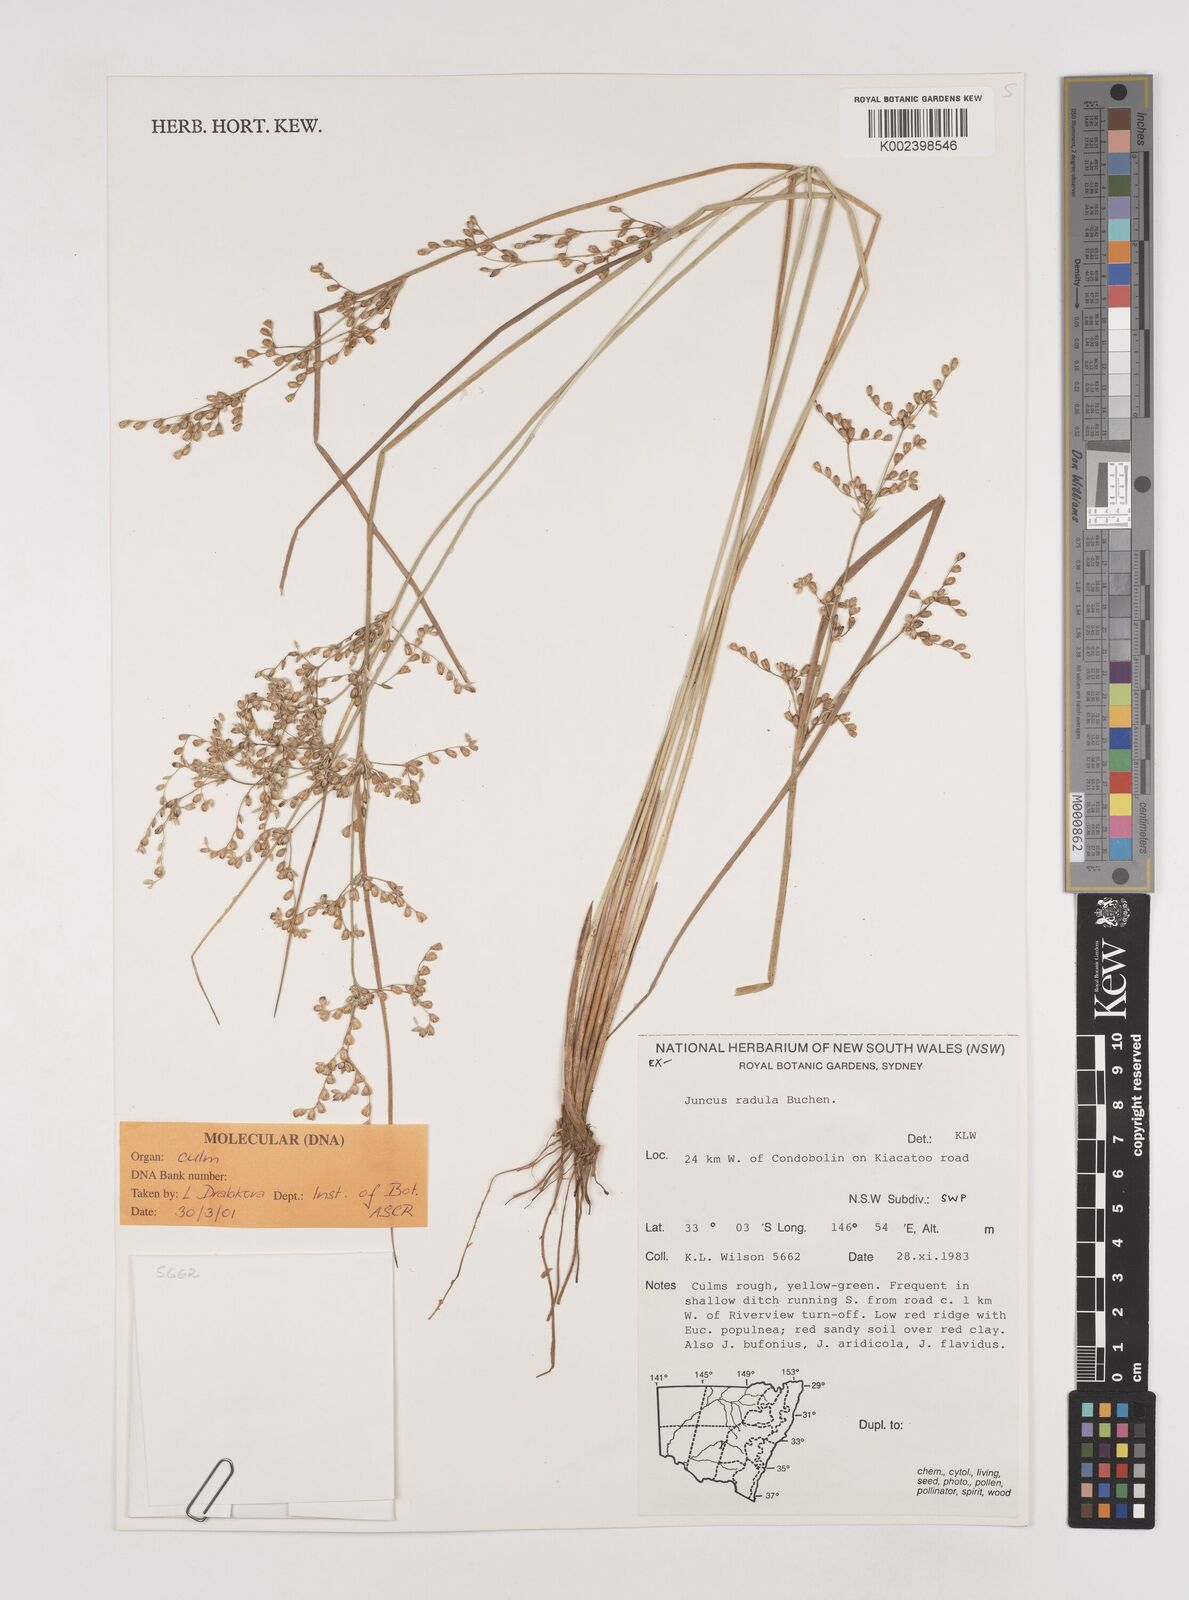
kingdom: Plantae
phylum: Tracheophyta
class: Liliopsida
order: Poales
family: Juncaceae
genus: Juncus
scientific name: Juncus radula
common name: Hoary rush
